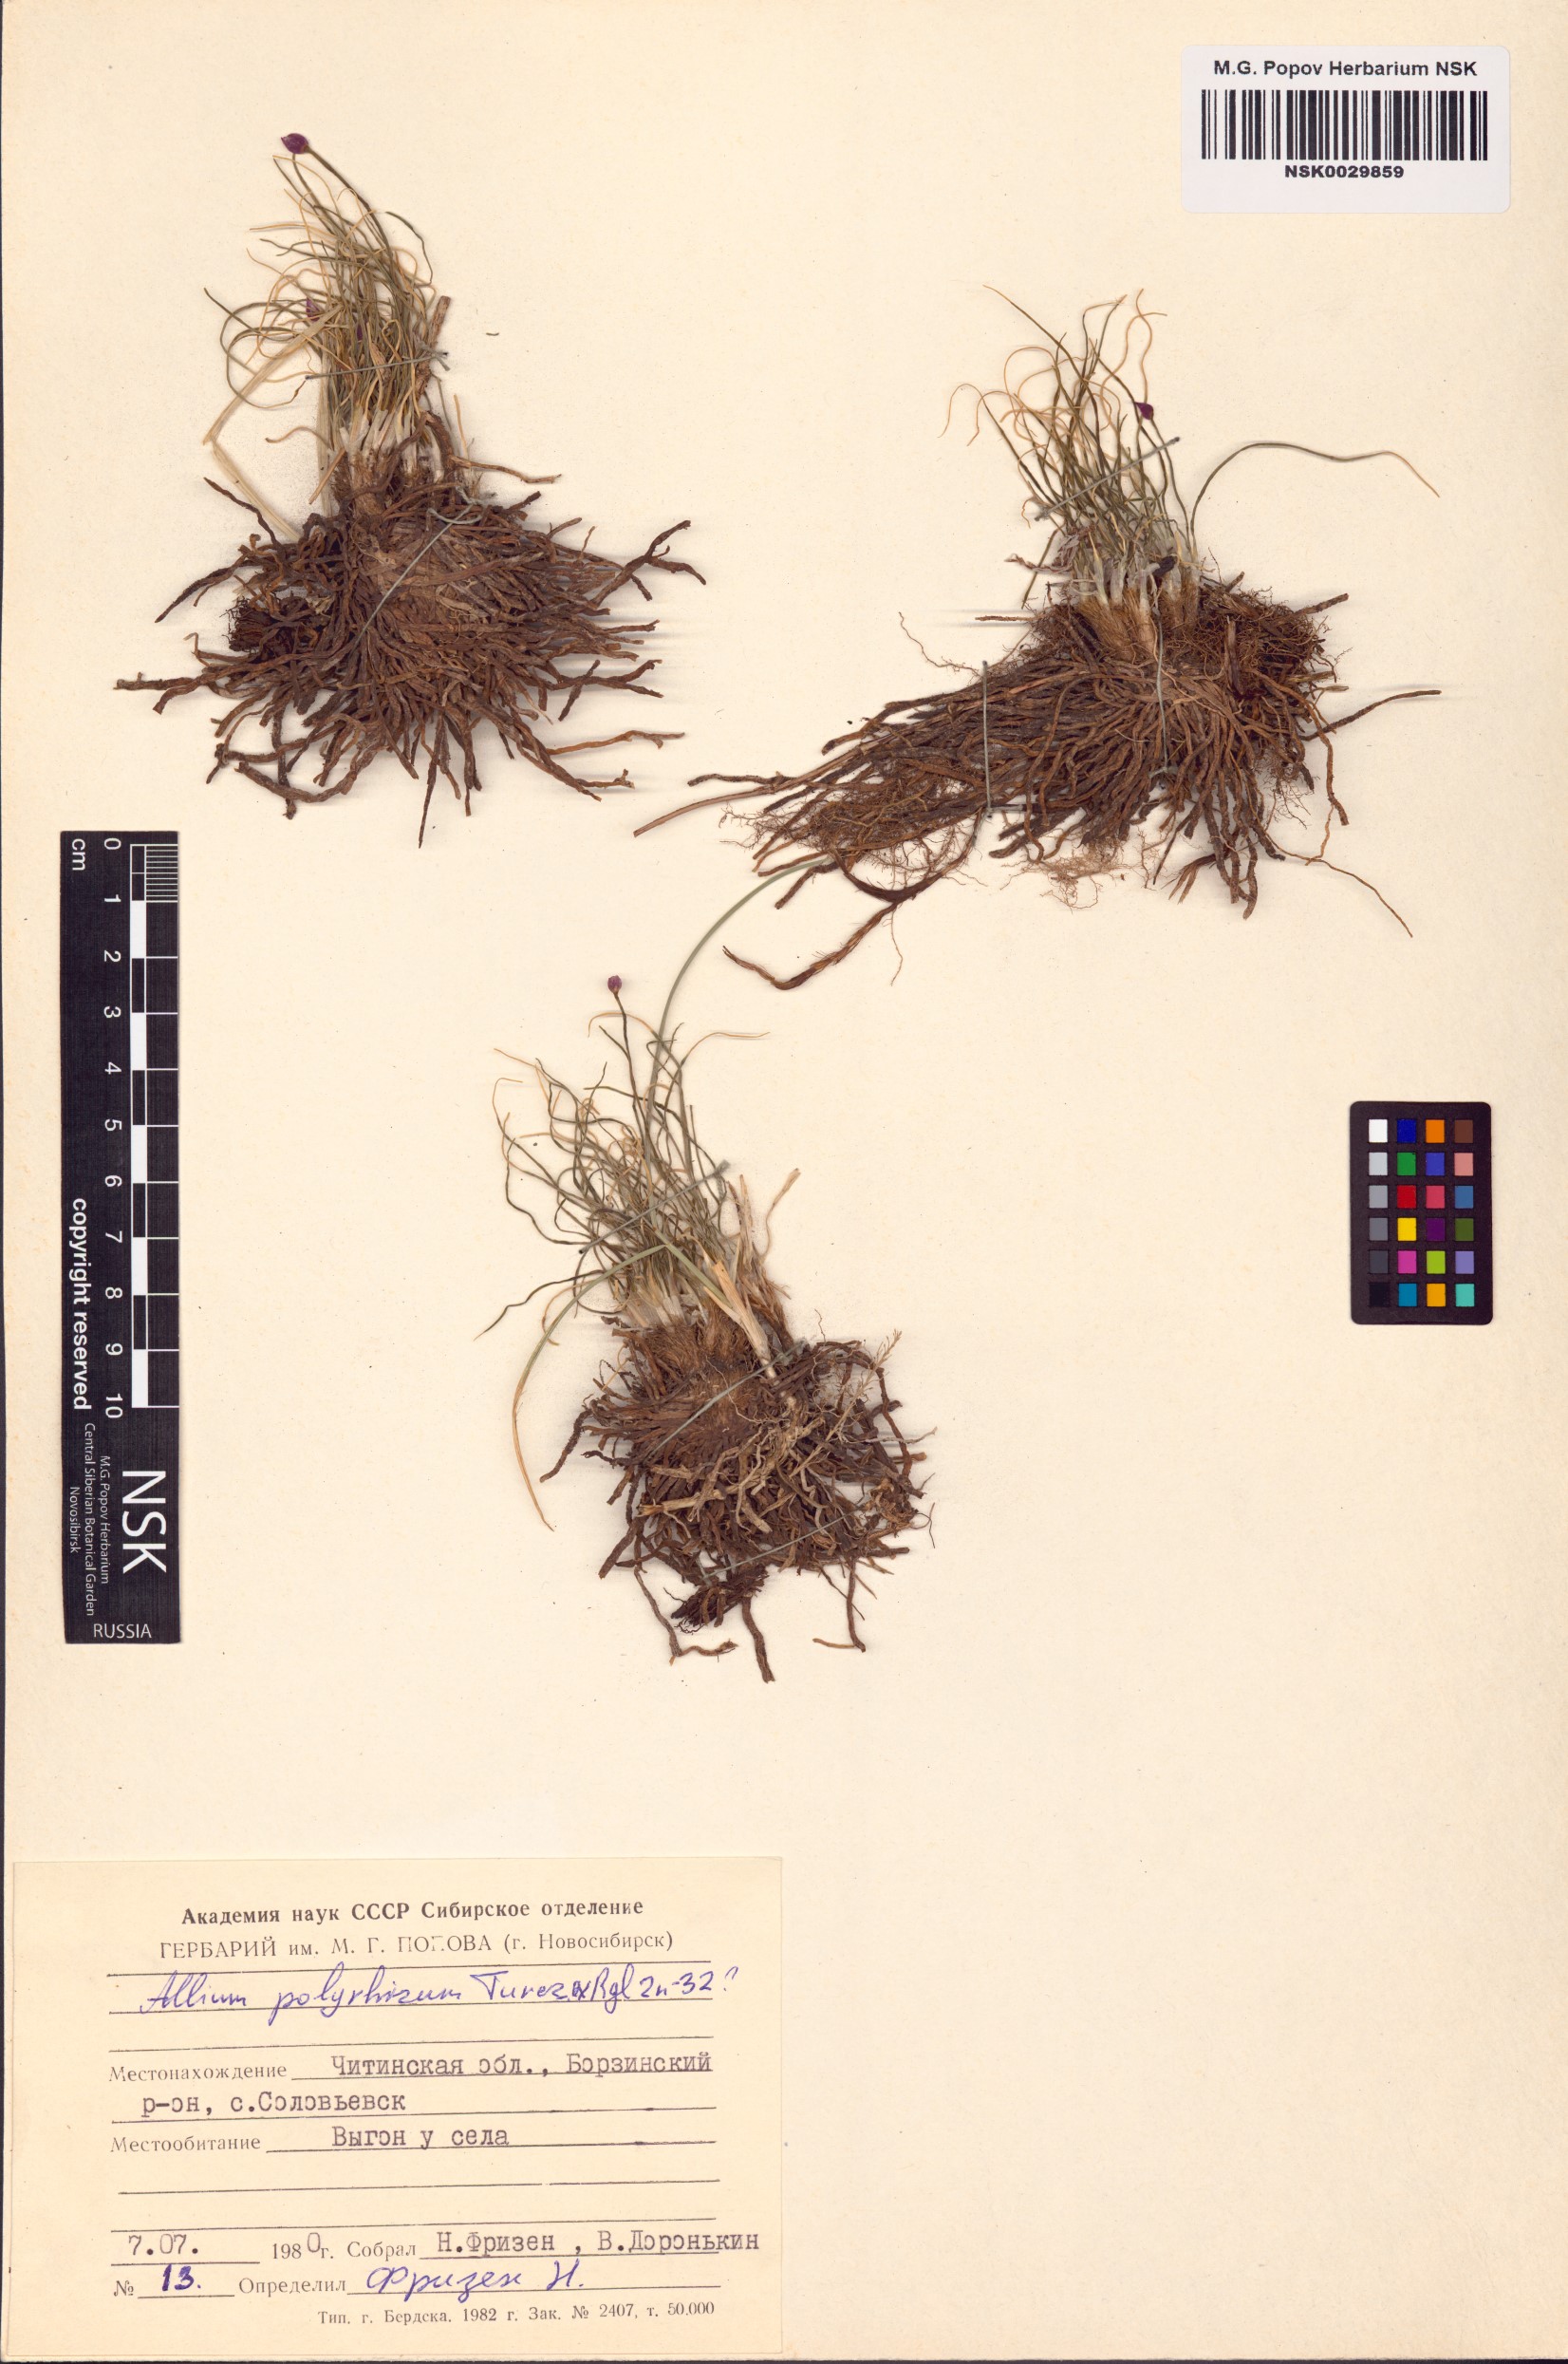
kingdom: Plantae
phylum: Tracheophyta
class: Liliopsida
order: Asparagales
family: Amaryllidaceae
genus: Allium
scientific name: Allium polyrhizum
